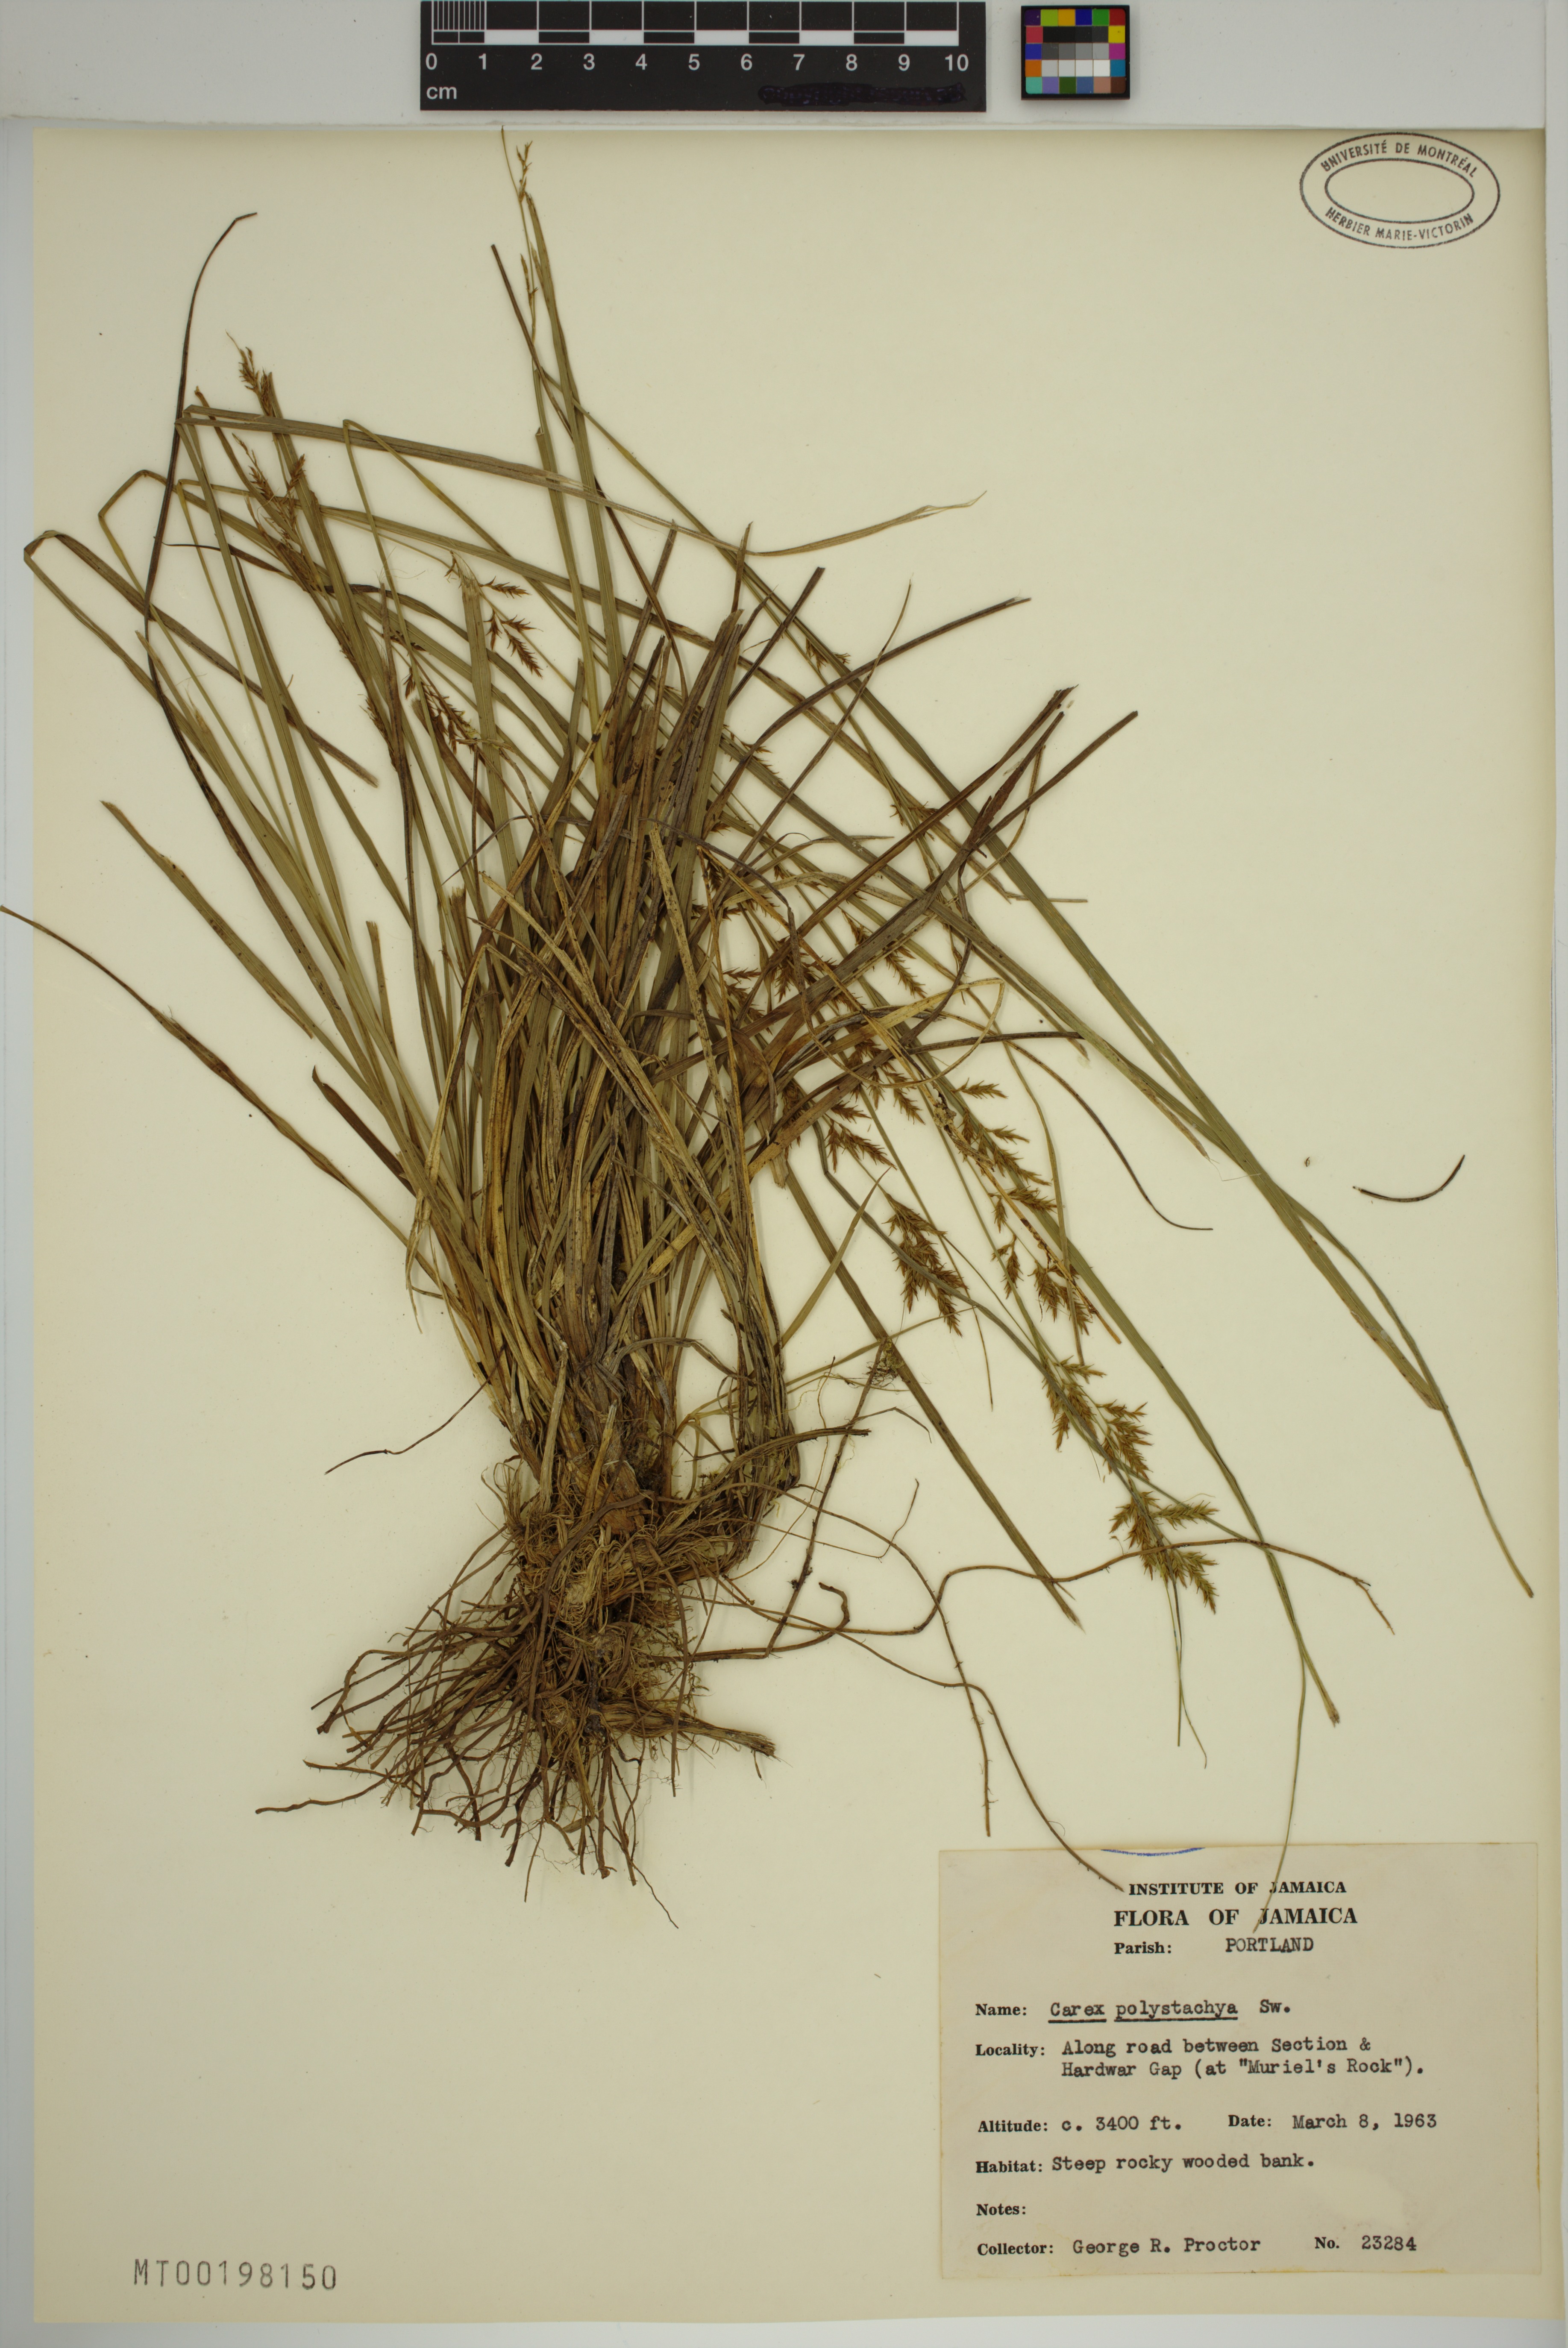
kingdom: Plantae
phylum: Tracheophyta
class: Liliopsida
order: Poales
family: Cyperaceae
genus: Carex
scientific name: Carex polystachya
